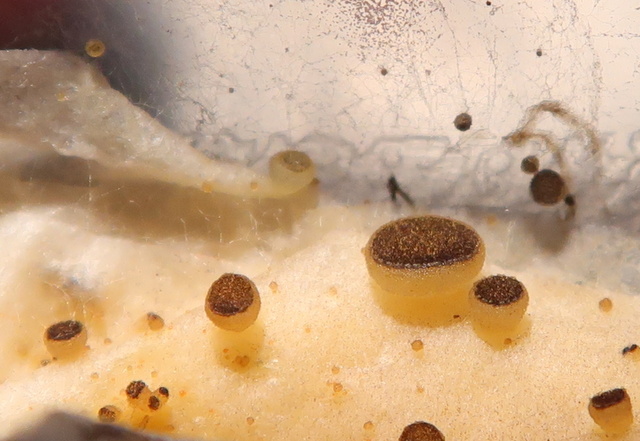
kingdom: Fungi
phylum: Ascomycota
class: Pezizomycetes
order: Pezizales
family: Ascobolaceae
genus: Ascobolus
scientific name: Ascobolus sacchariferus
